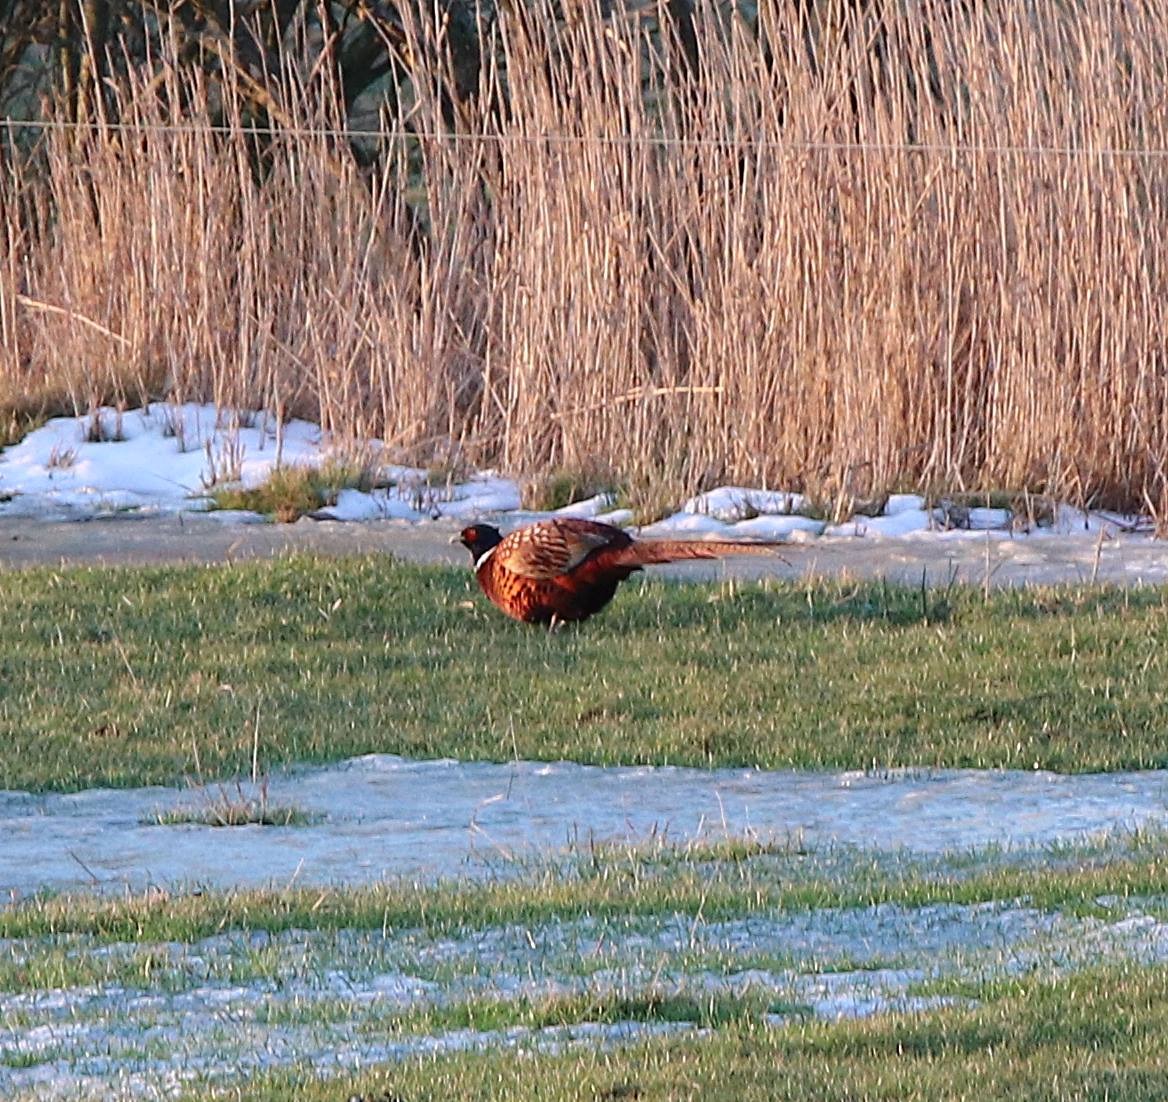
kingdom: Animalia
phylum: Chordata
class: Aves
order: Galliformes
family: Phasianidae
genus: Phasianus
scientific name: Phasianus colchicus
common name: Fasan
